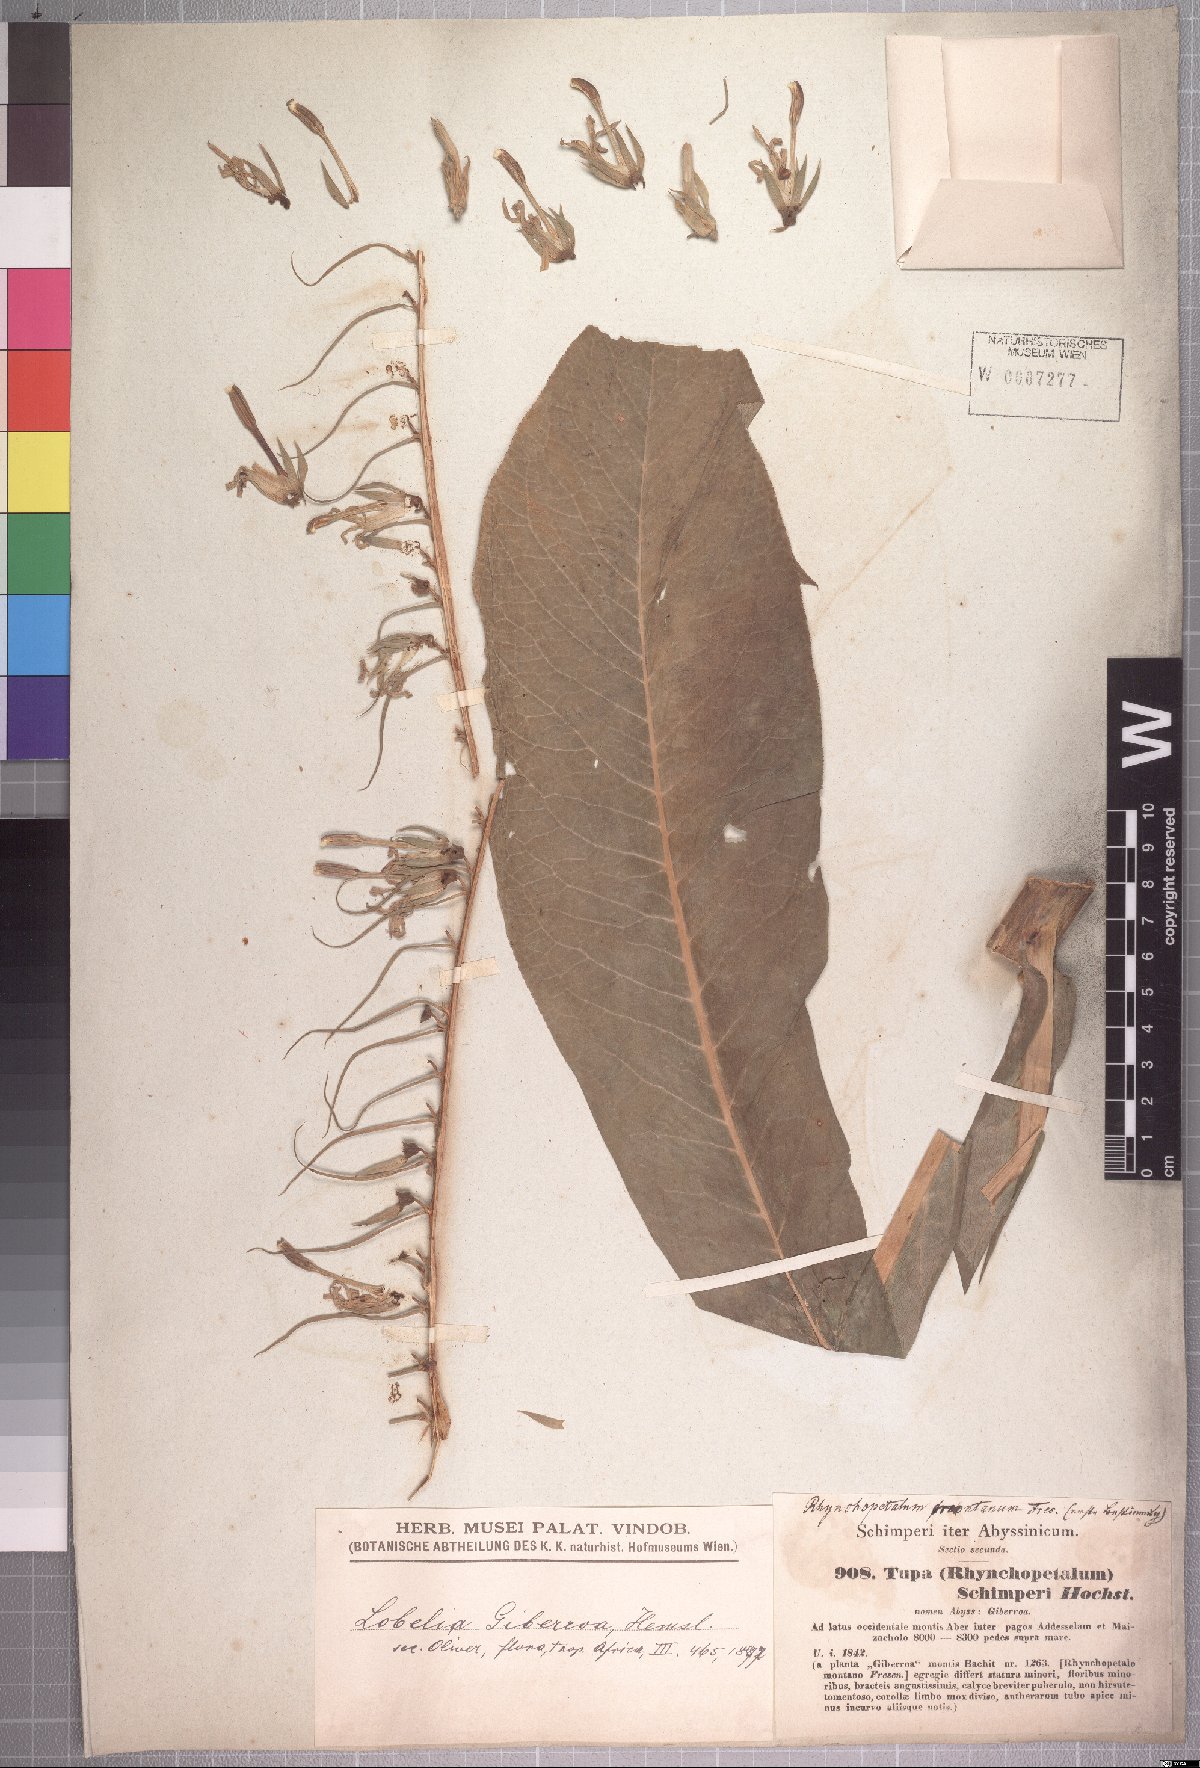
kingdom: Plantae
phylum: Tracheophyta
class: Magnoliopsida
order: Asterales
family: Campanulaceae
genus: Lobelia
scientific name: Lobelia giberroa
